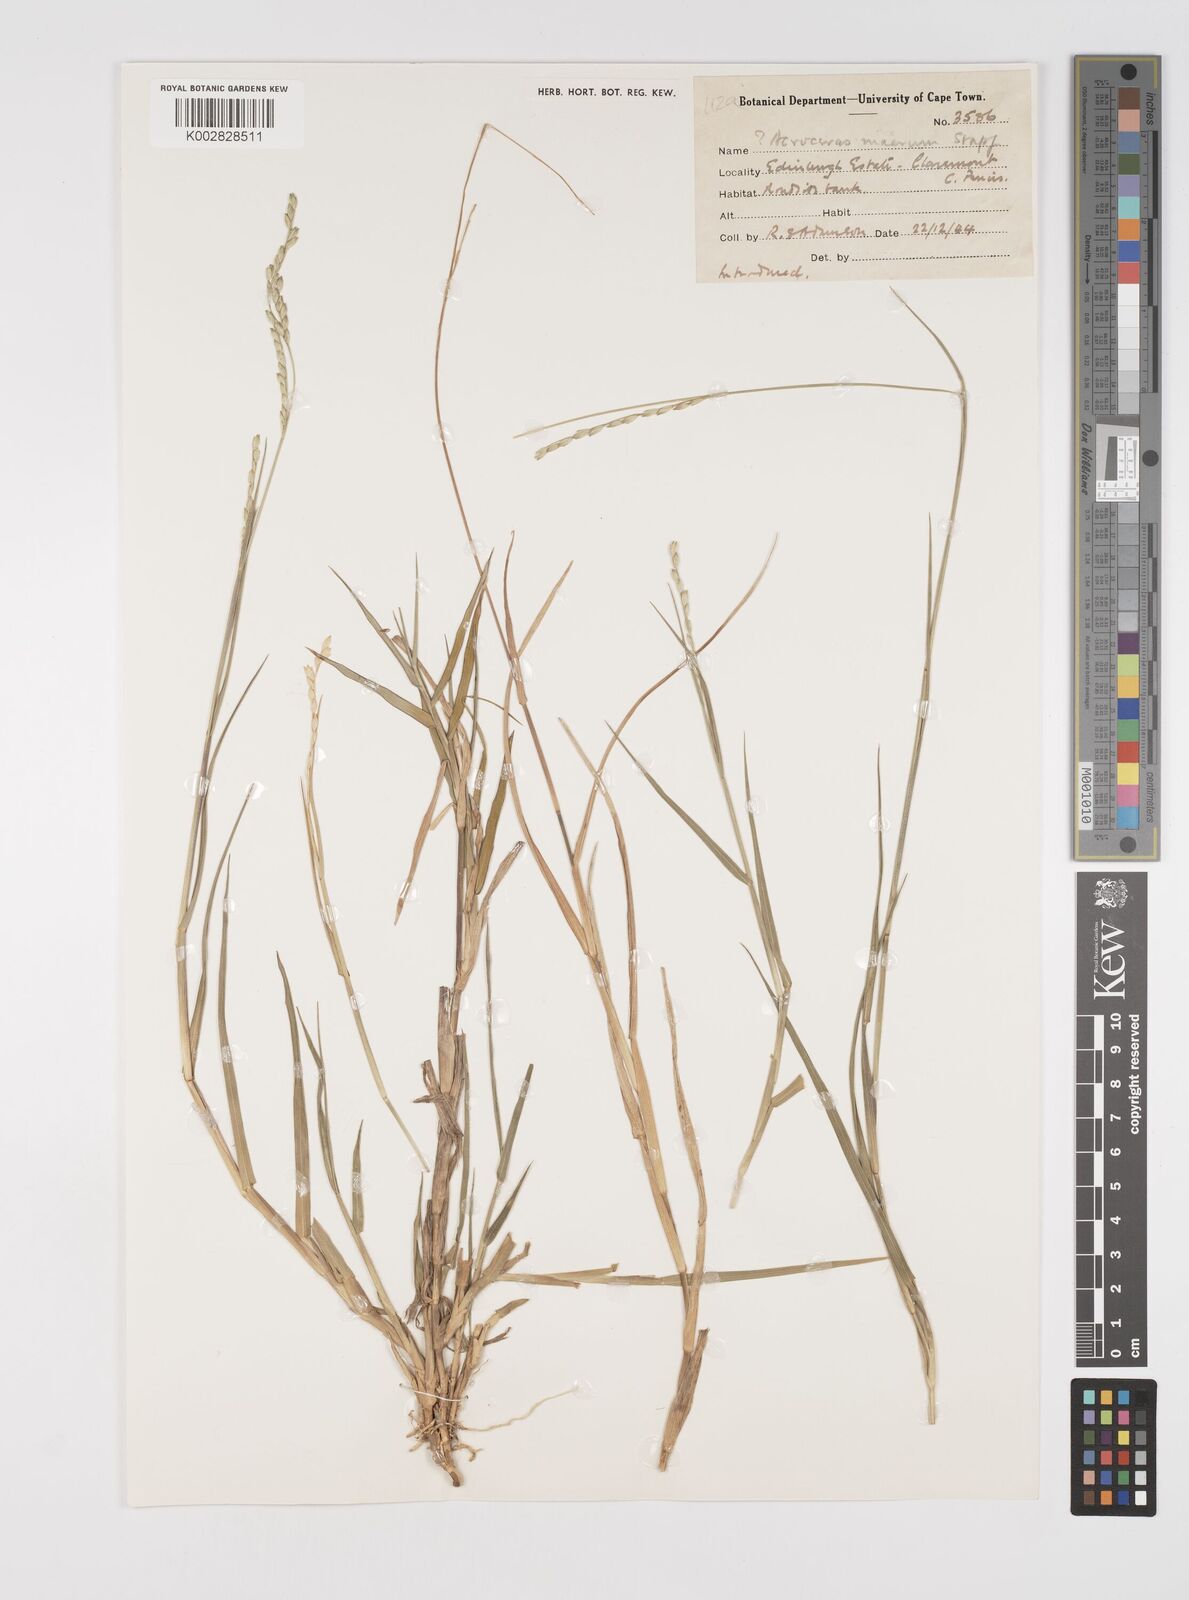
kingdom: Plantae
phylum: Tracheophyta
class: Liliopsida
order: Poales
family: Poaceae
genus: Acroceras
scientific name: Acroceras macrum
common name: Nyl grass
